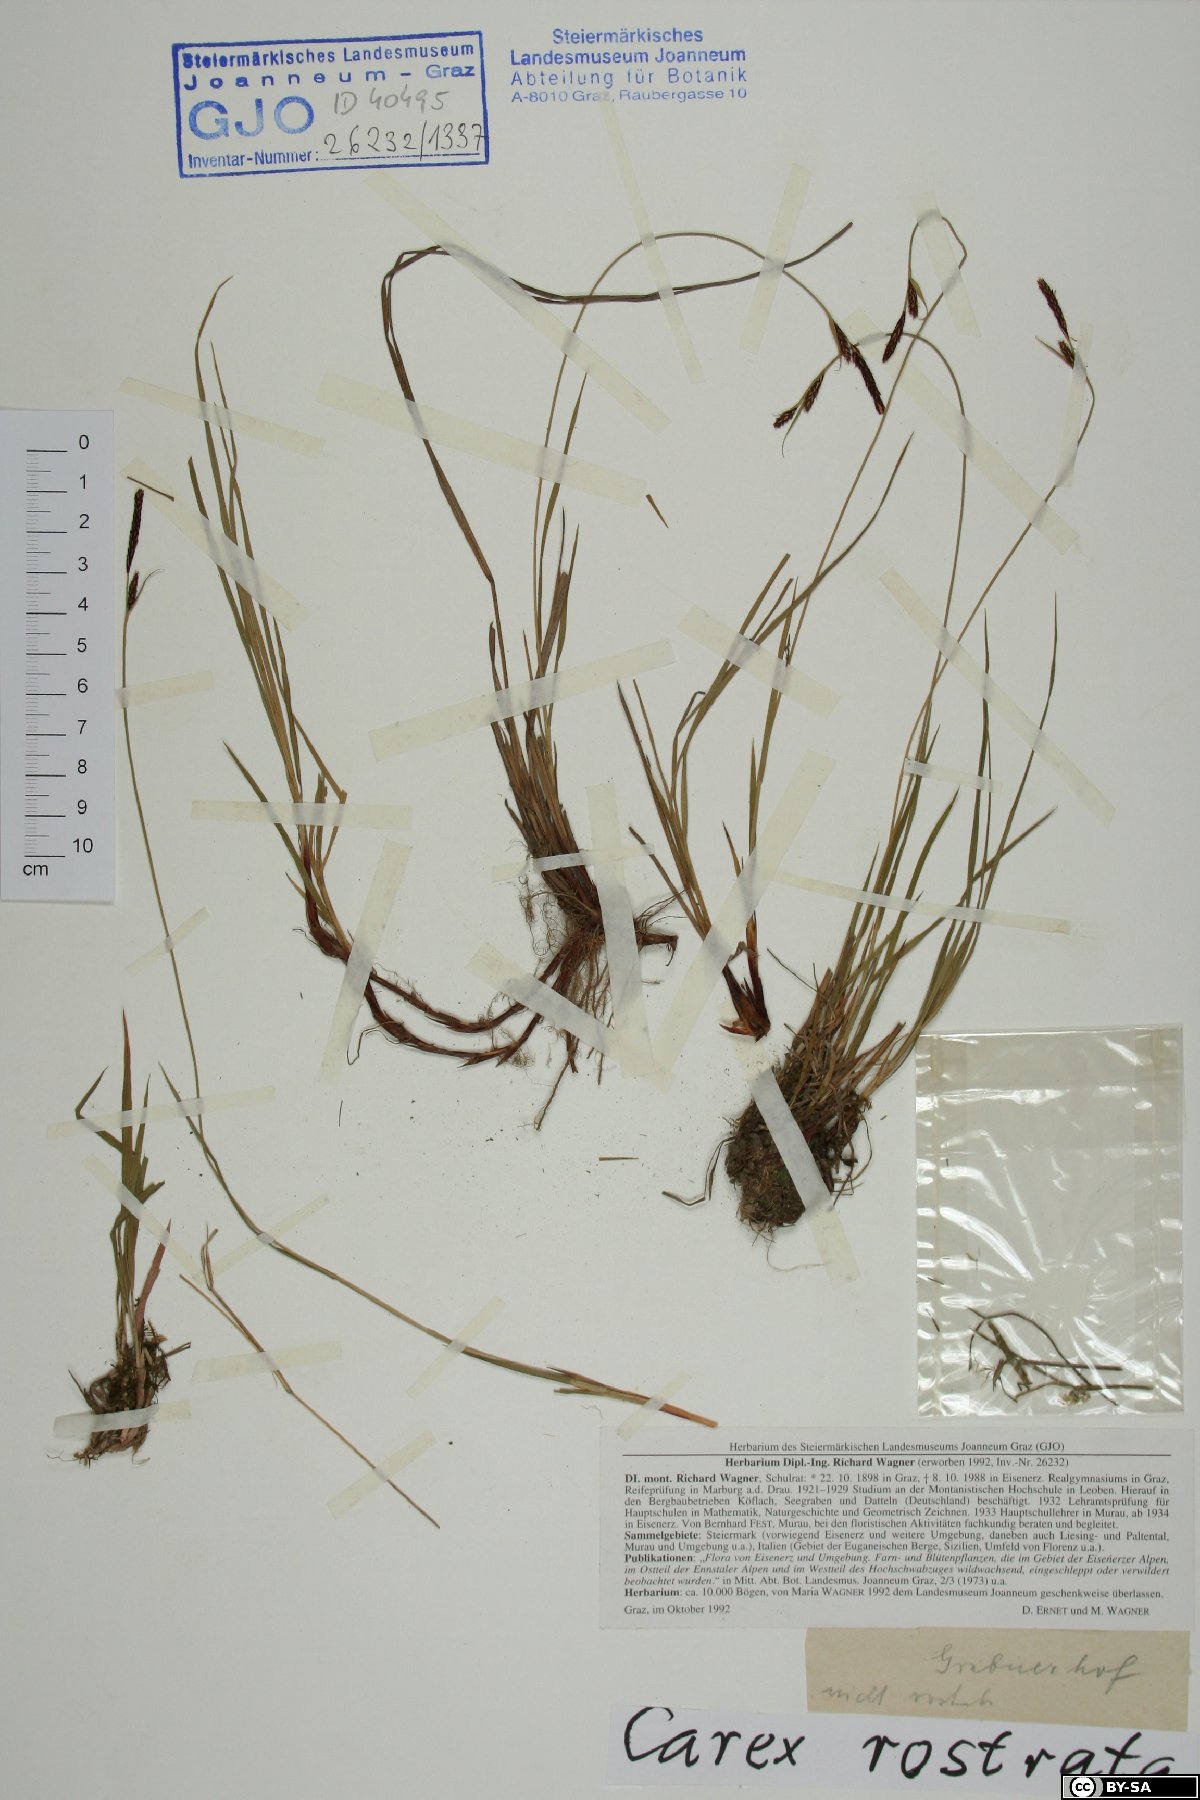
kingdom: Plantae
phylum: Tracheophyta
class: Liliopsida
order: Poales
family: Cyperaceae
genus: Carex
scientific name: Carex rostrata
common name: Bottle sedge
